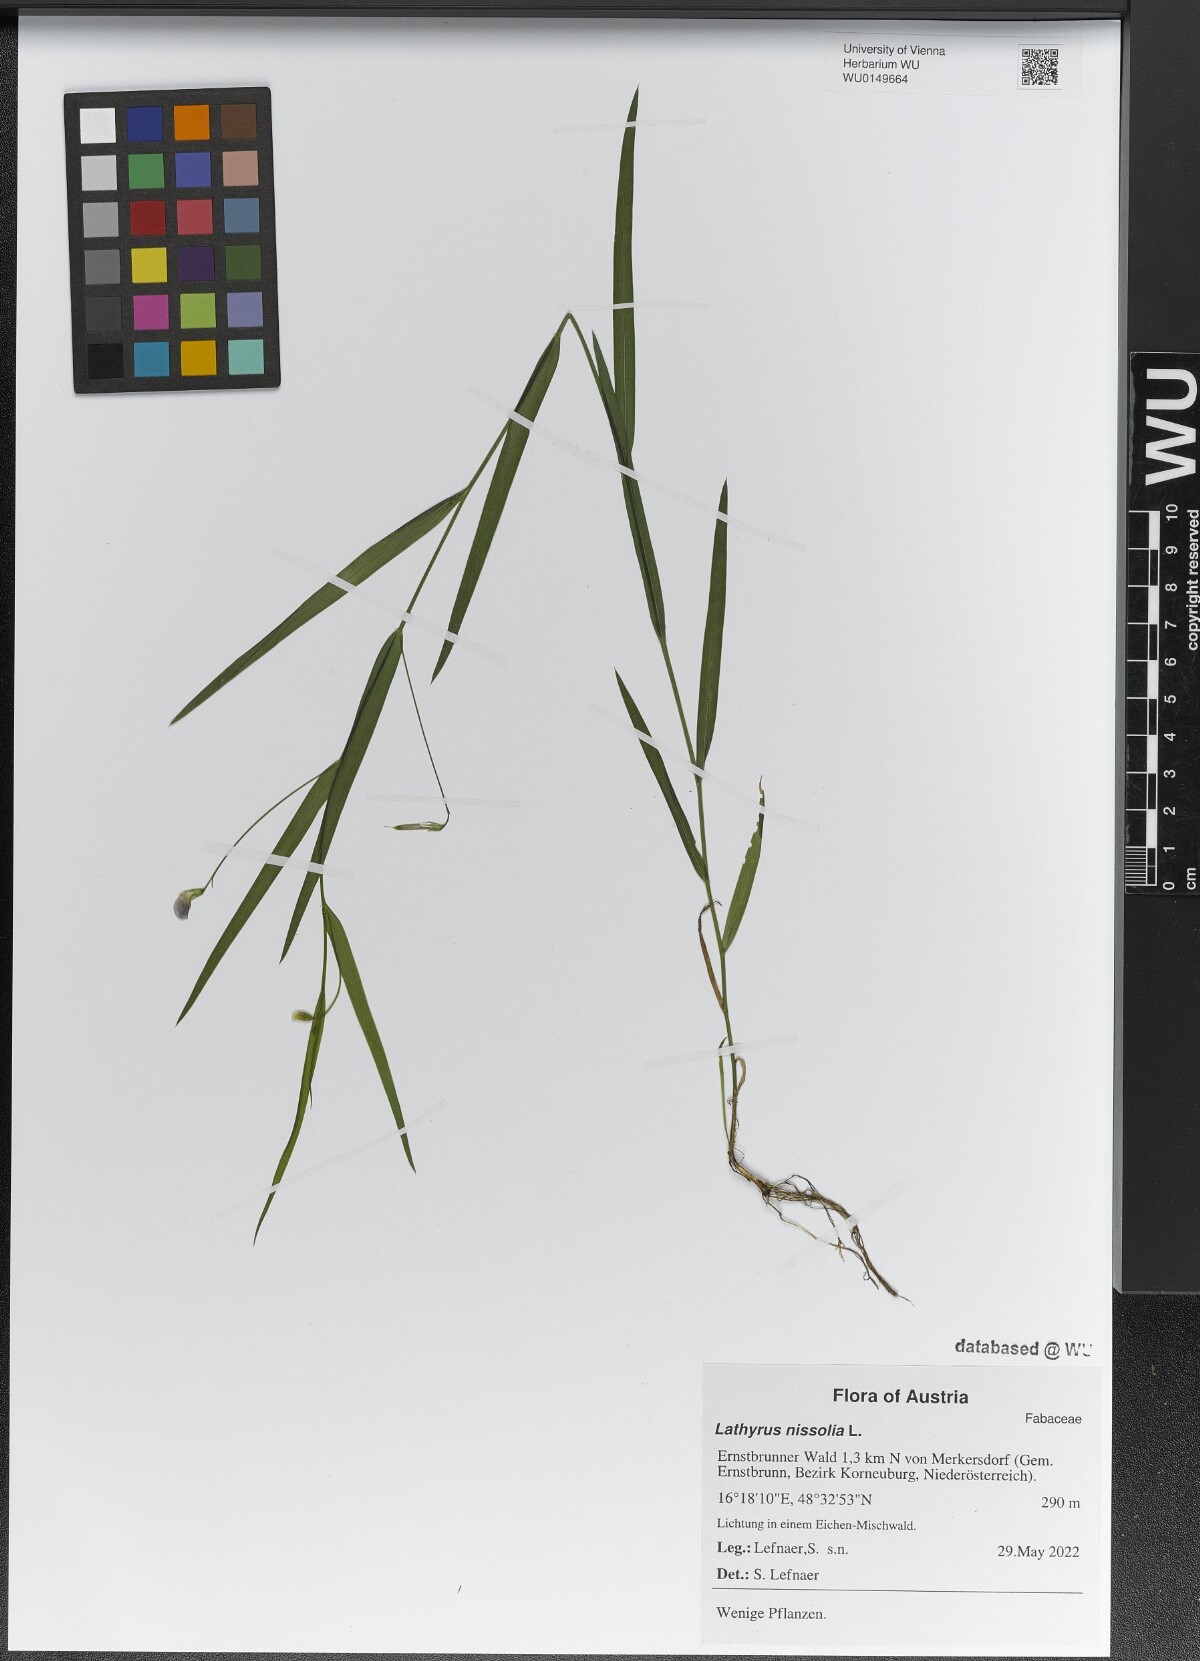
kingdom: Plantae
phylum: Tracheophyta
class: Magnoliopsida
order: Fabales
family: Fabaceae
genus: Lathyrus
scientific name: Lathyrus nissolia
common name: Grass vetchling
